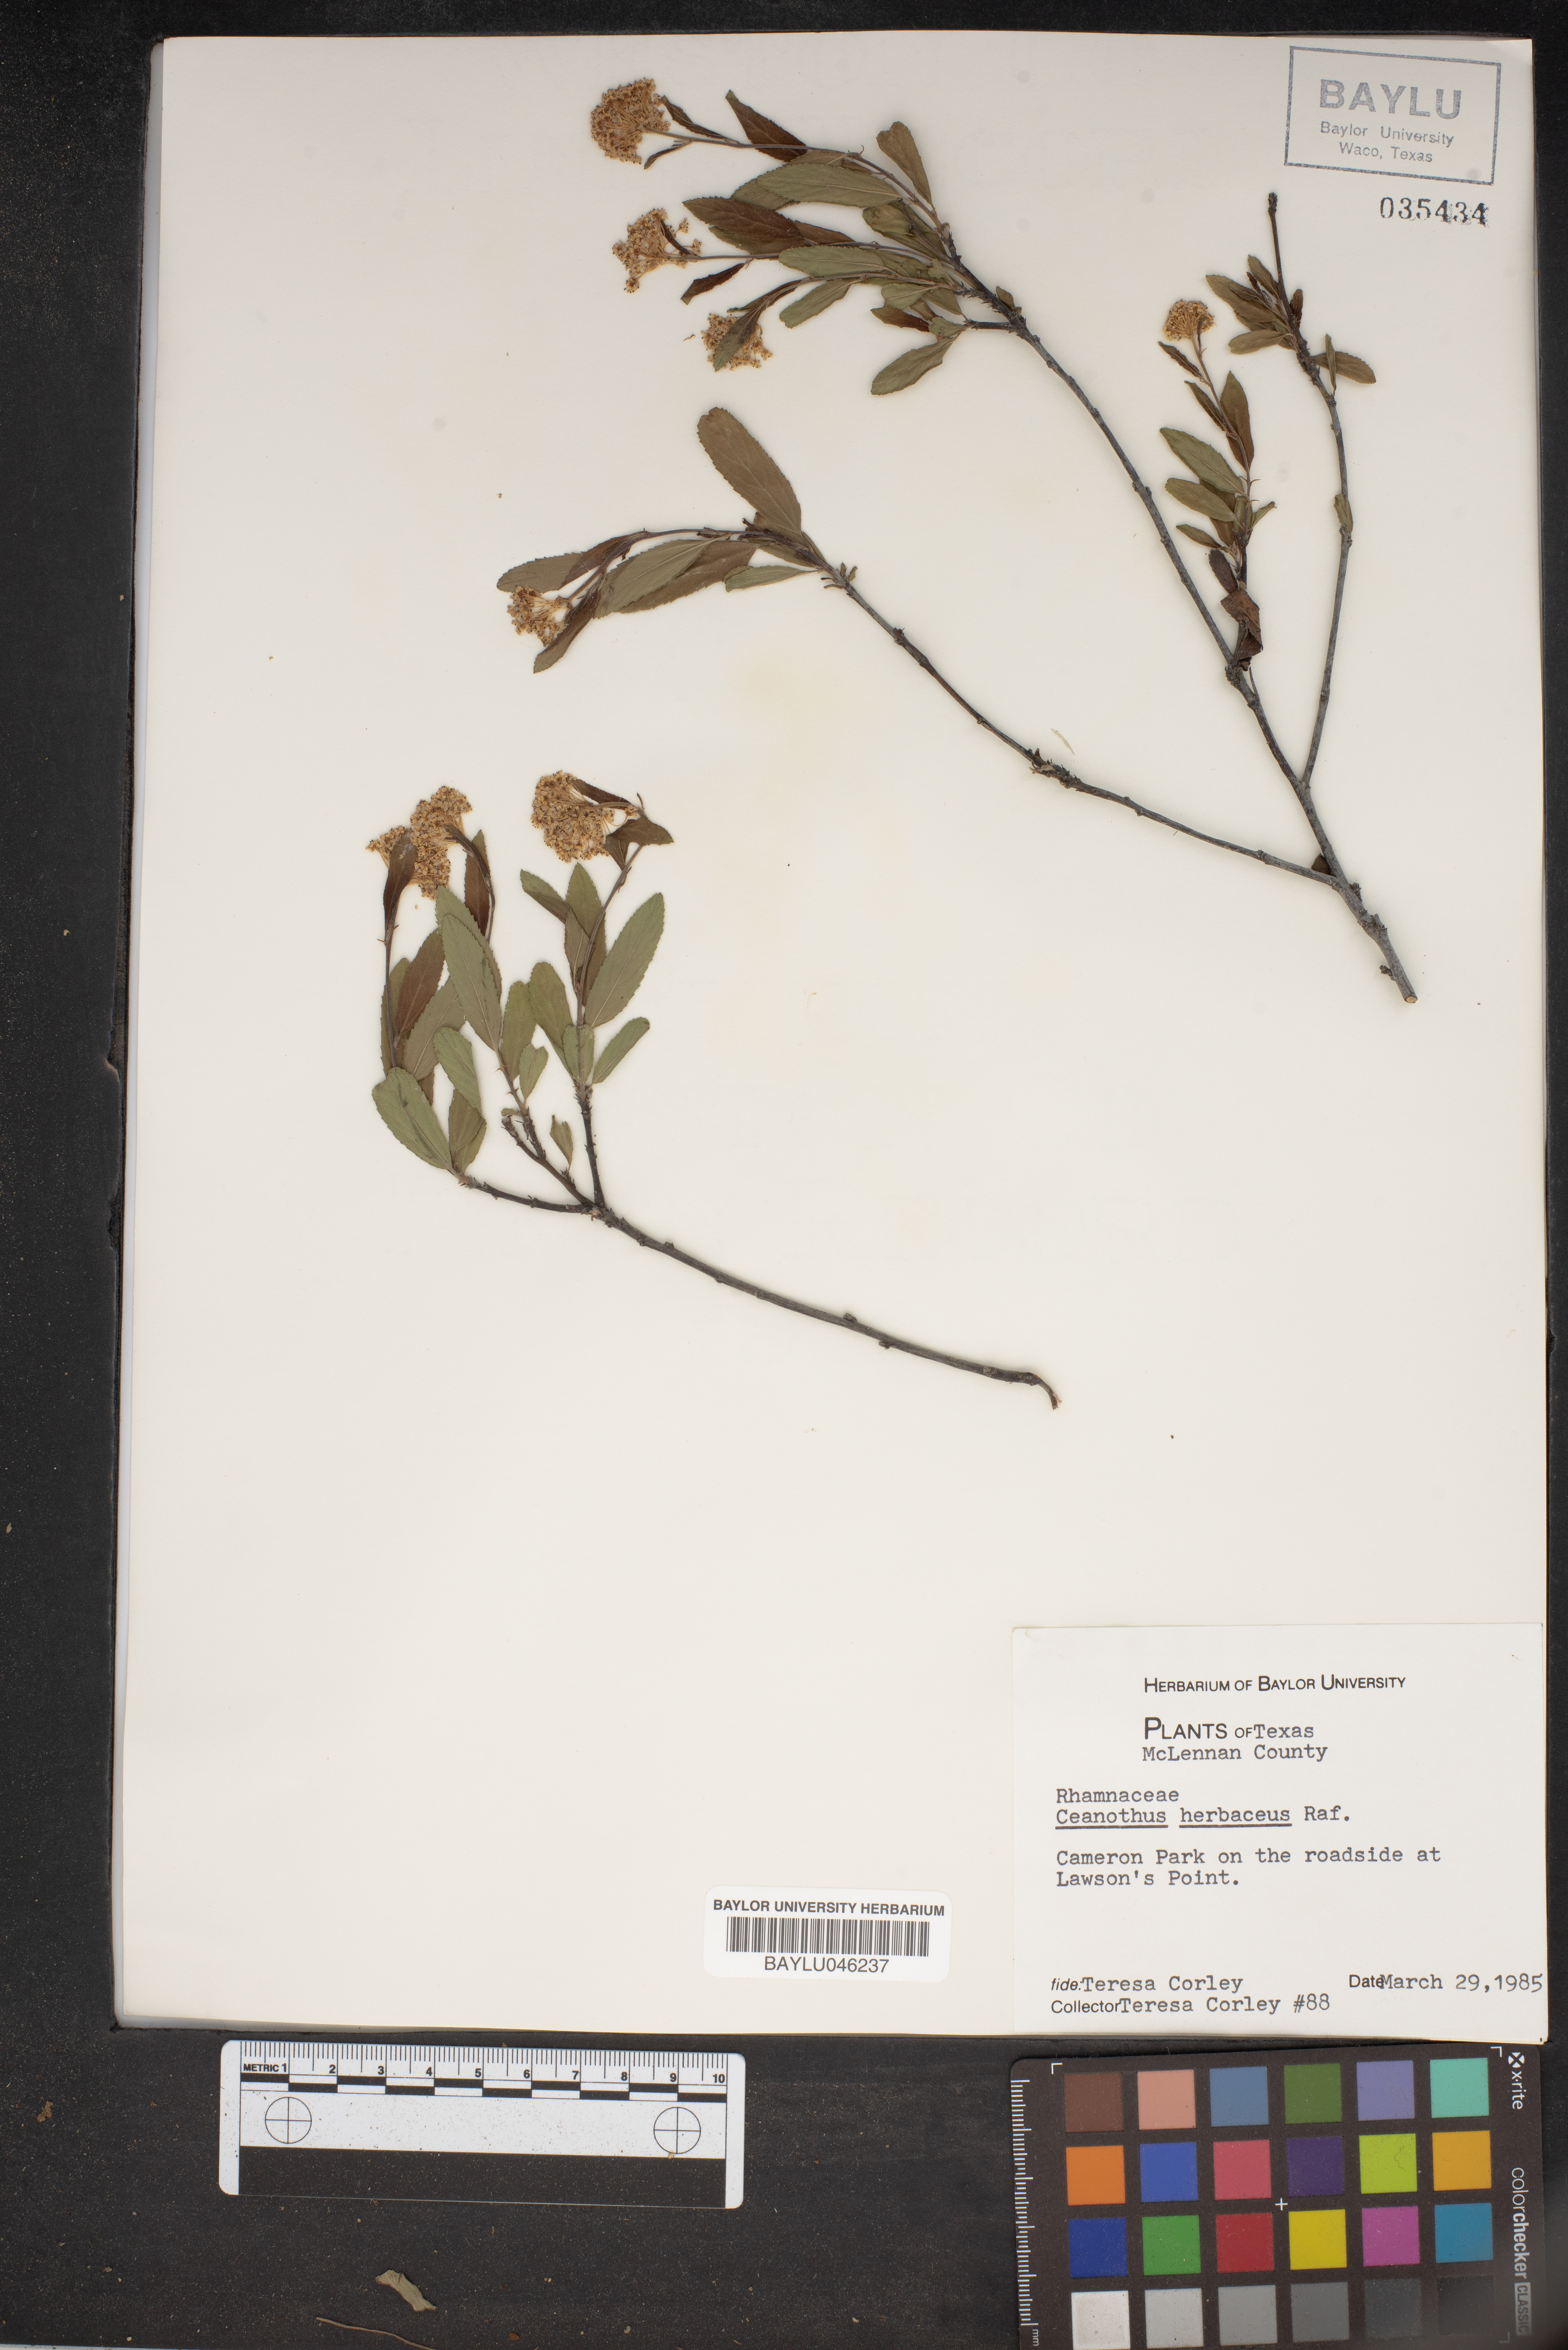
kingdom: Plantae
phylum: Tracheophyta
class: Magnoliopsida
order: Rosales
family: Rhamnaceae
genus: Ceanothus
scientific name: Ceanothus herbaceus
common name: Inland ceanothus
